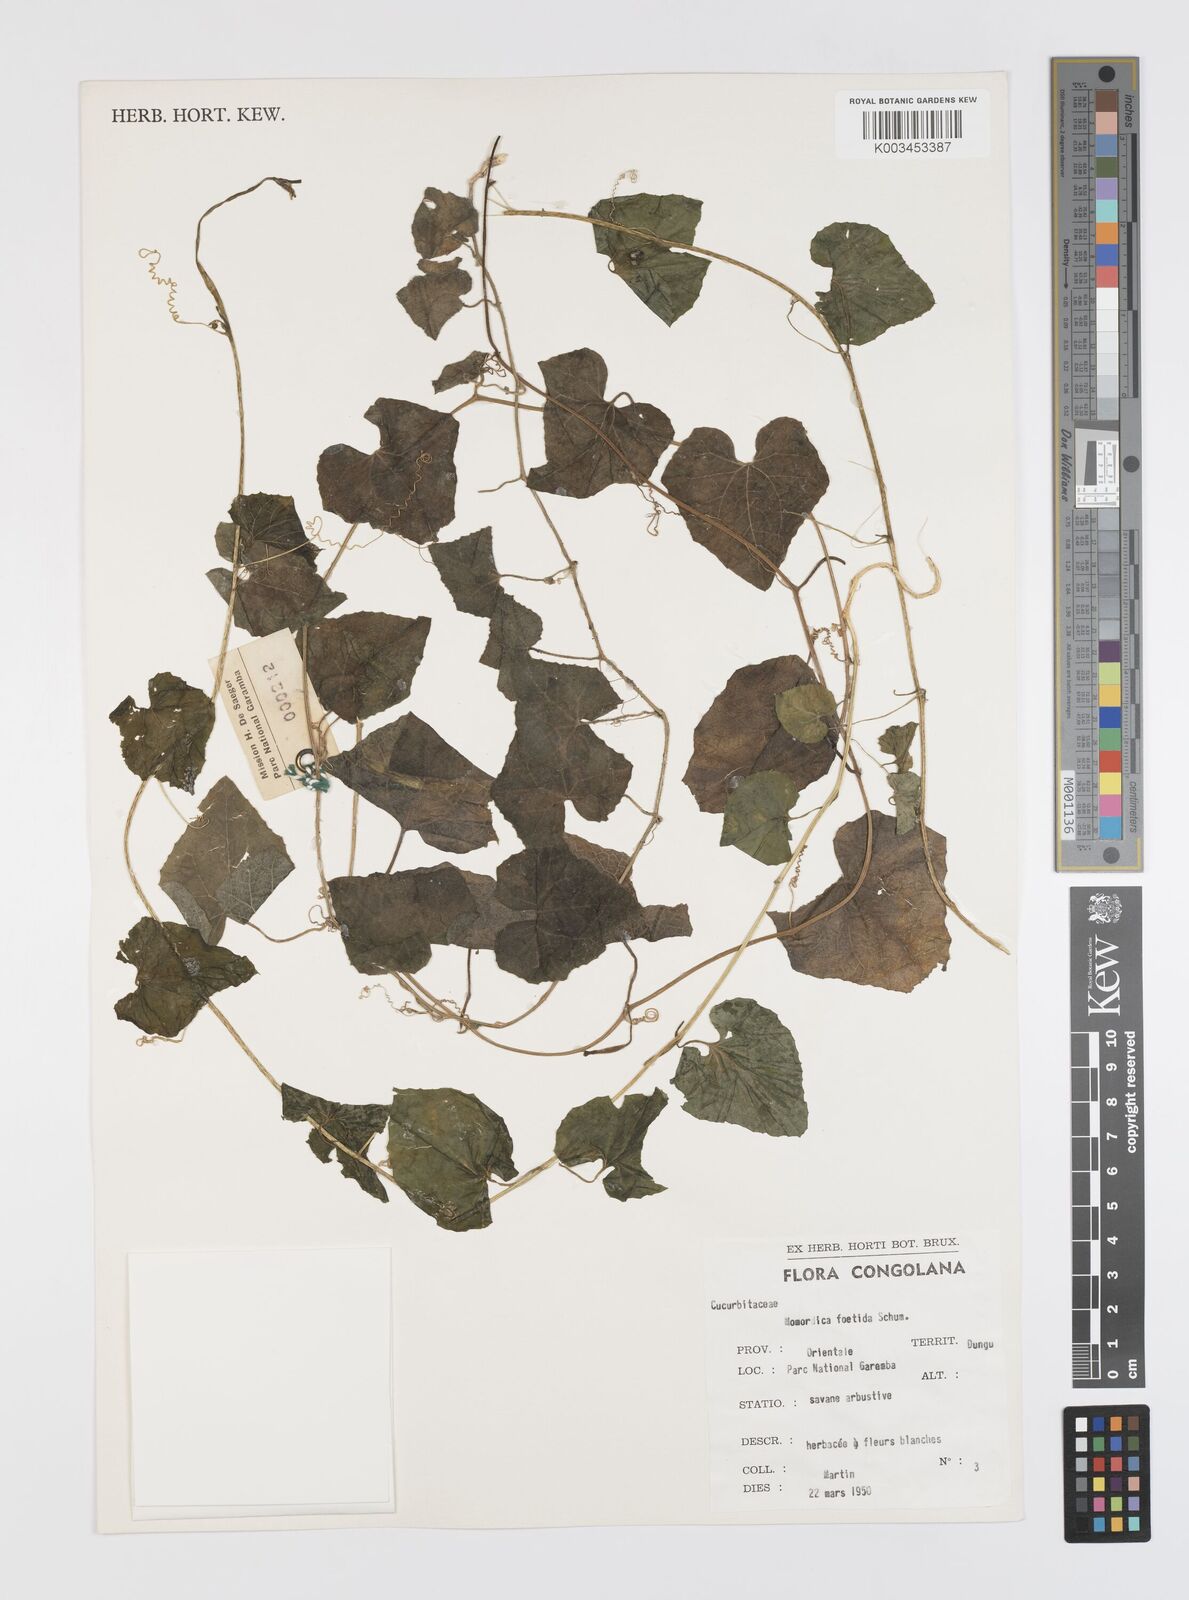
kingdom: Plantae
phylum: Tracheophyta
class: Magnoliopsida
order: Cucurbitales
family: Cucurbitaceae
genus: Momordica
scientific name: Momordica foetida
